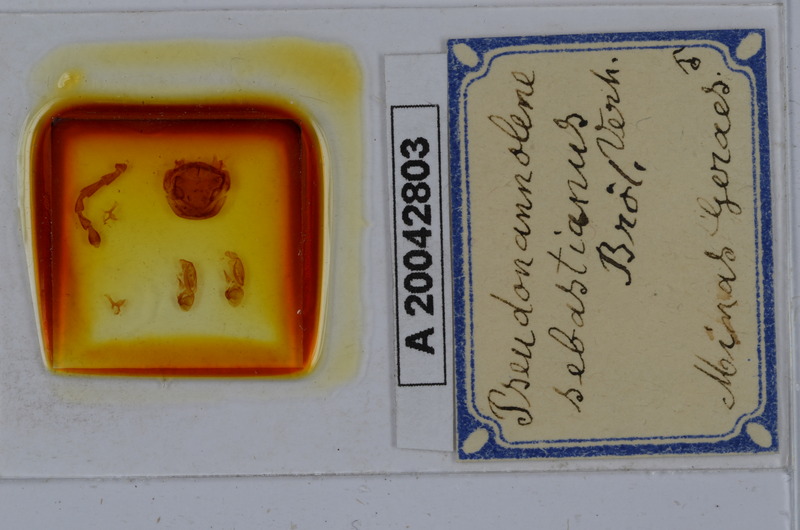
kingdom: Animalia
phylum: Arthropoda
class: Diplopoda
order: Spirostreptida
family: Pseudonannolenidae
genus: Pseudonannolene
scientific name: Pseudonannolene sebastianus
